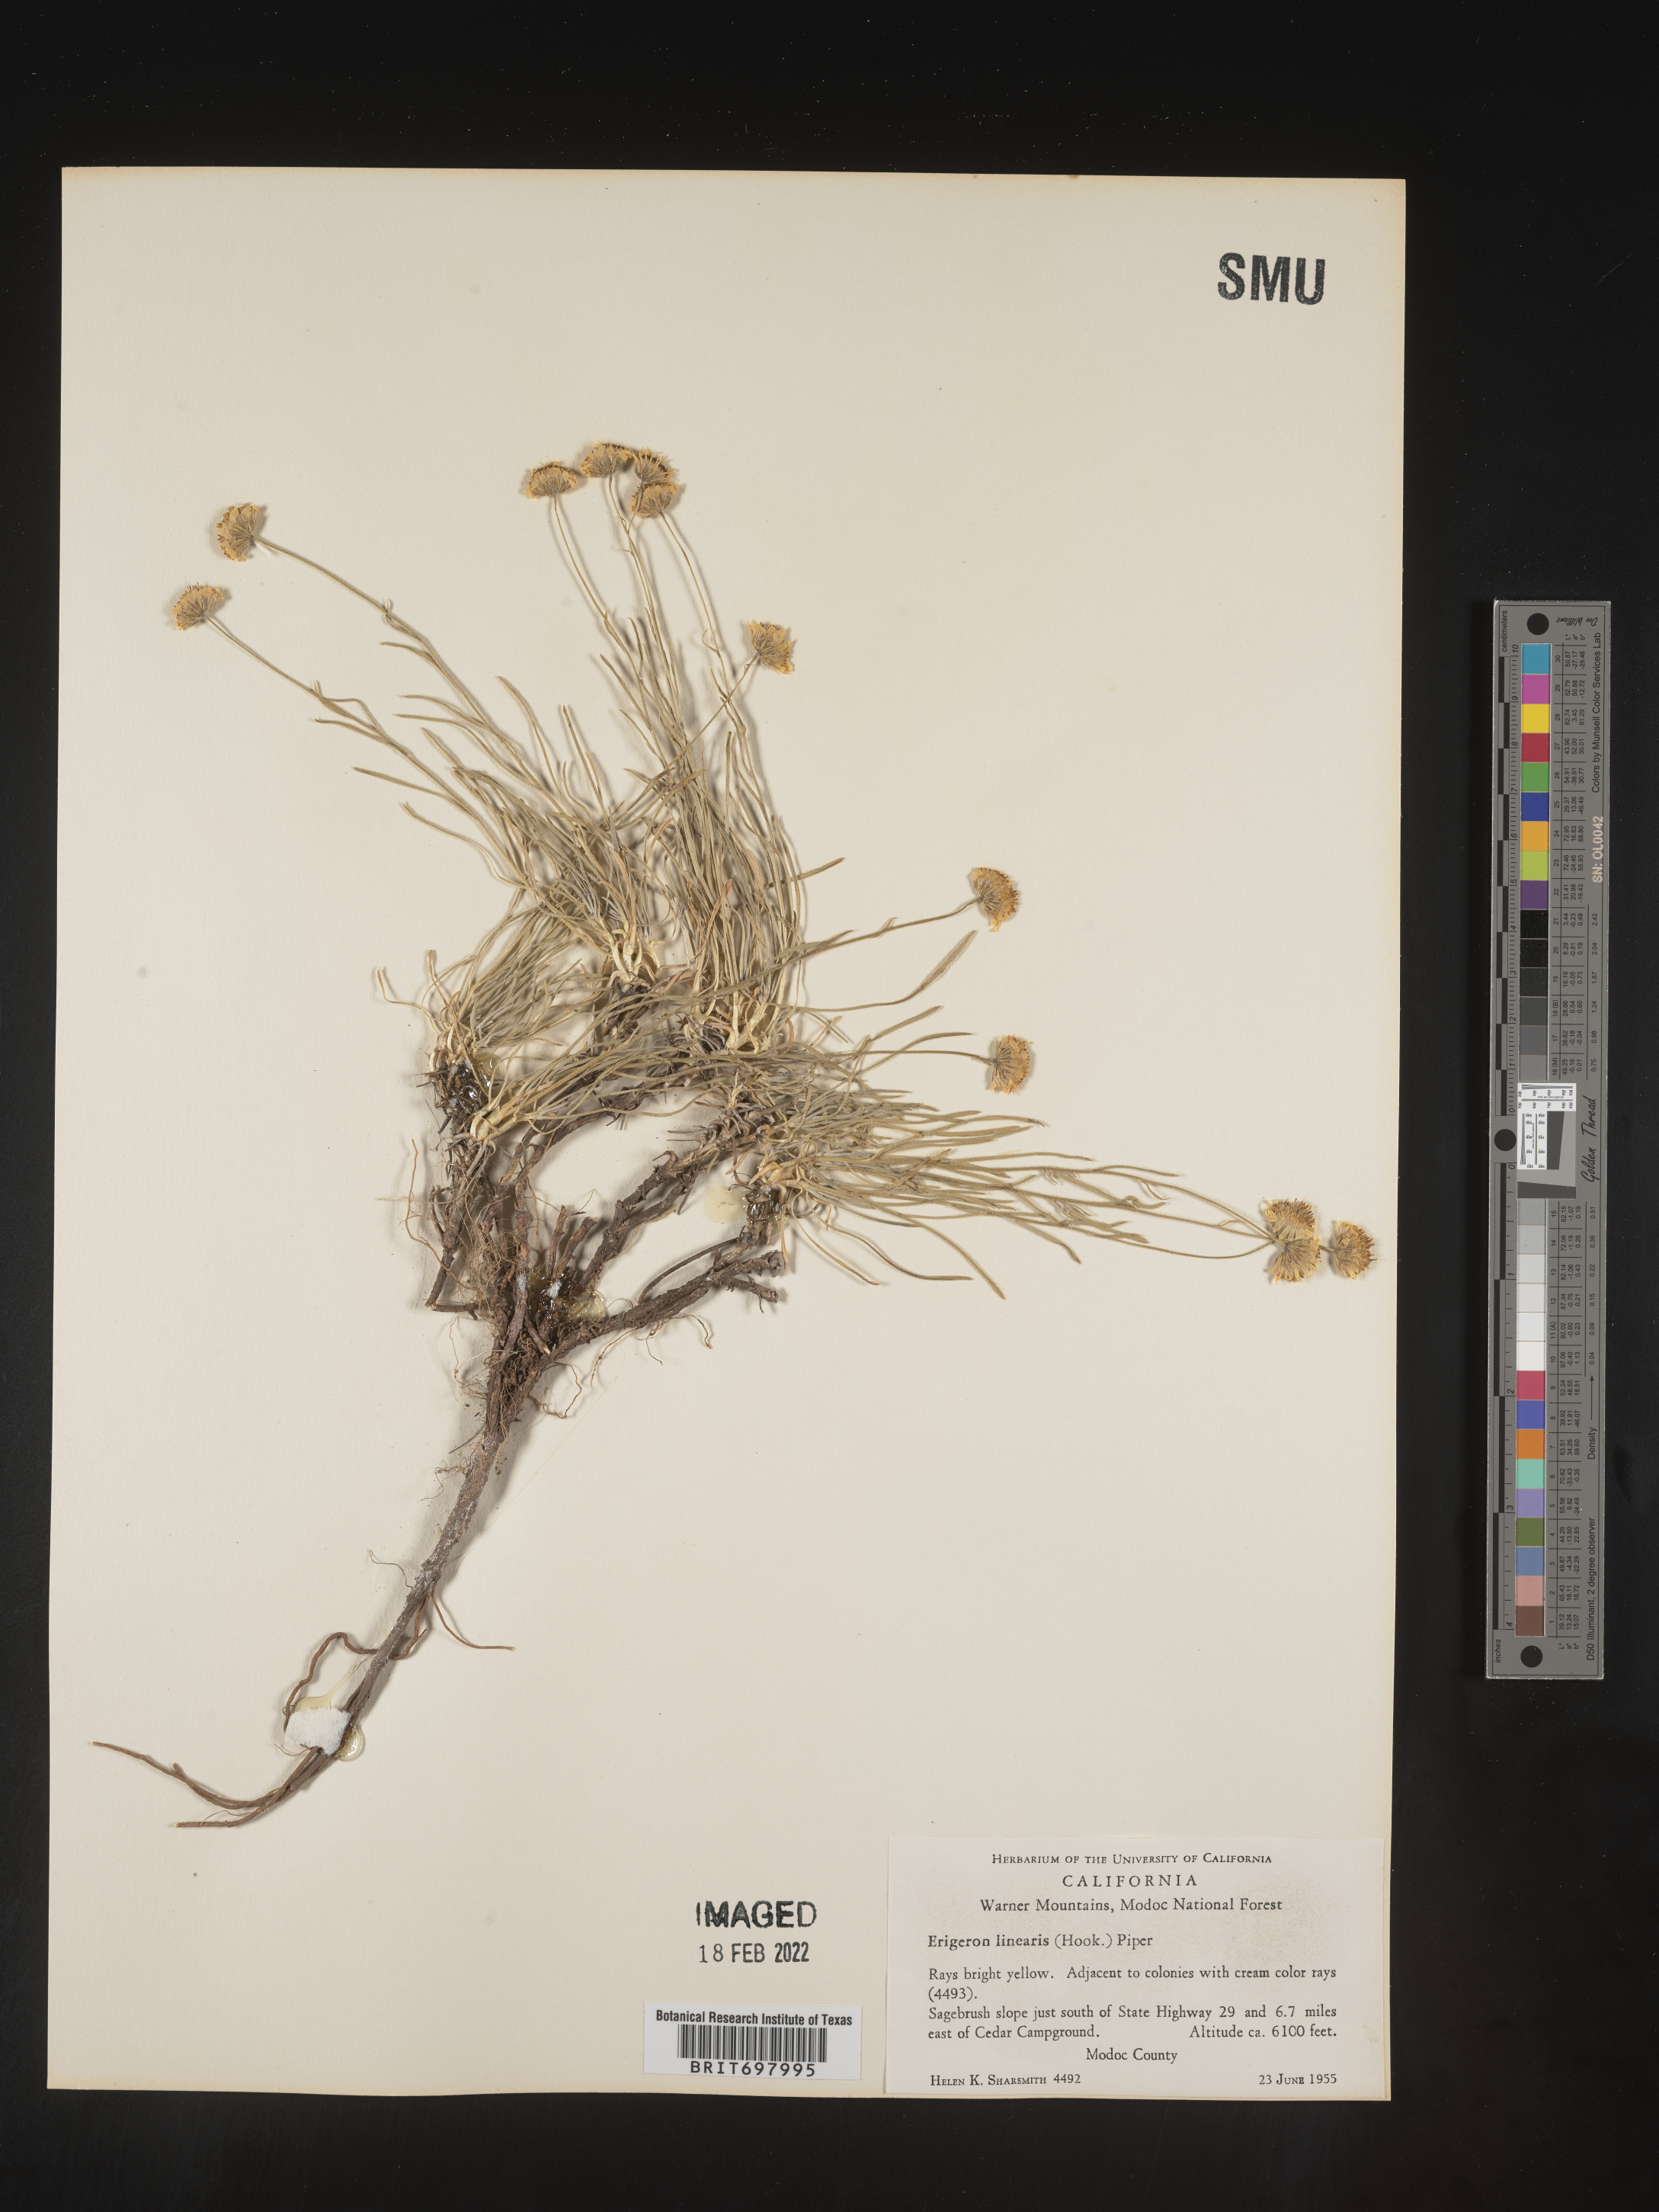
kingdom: Plantae
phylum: Tracheophyta
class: Magnoliopsida
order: Asterales
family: Asteraceae
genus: Erigeron
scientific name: Erigeron linearis
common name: Desert yellow fleabane
